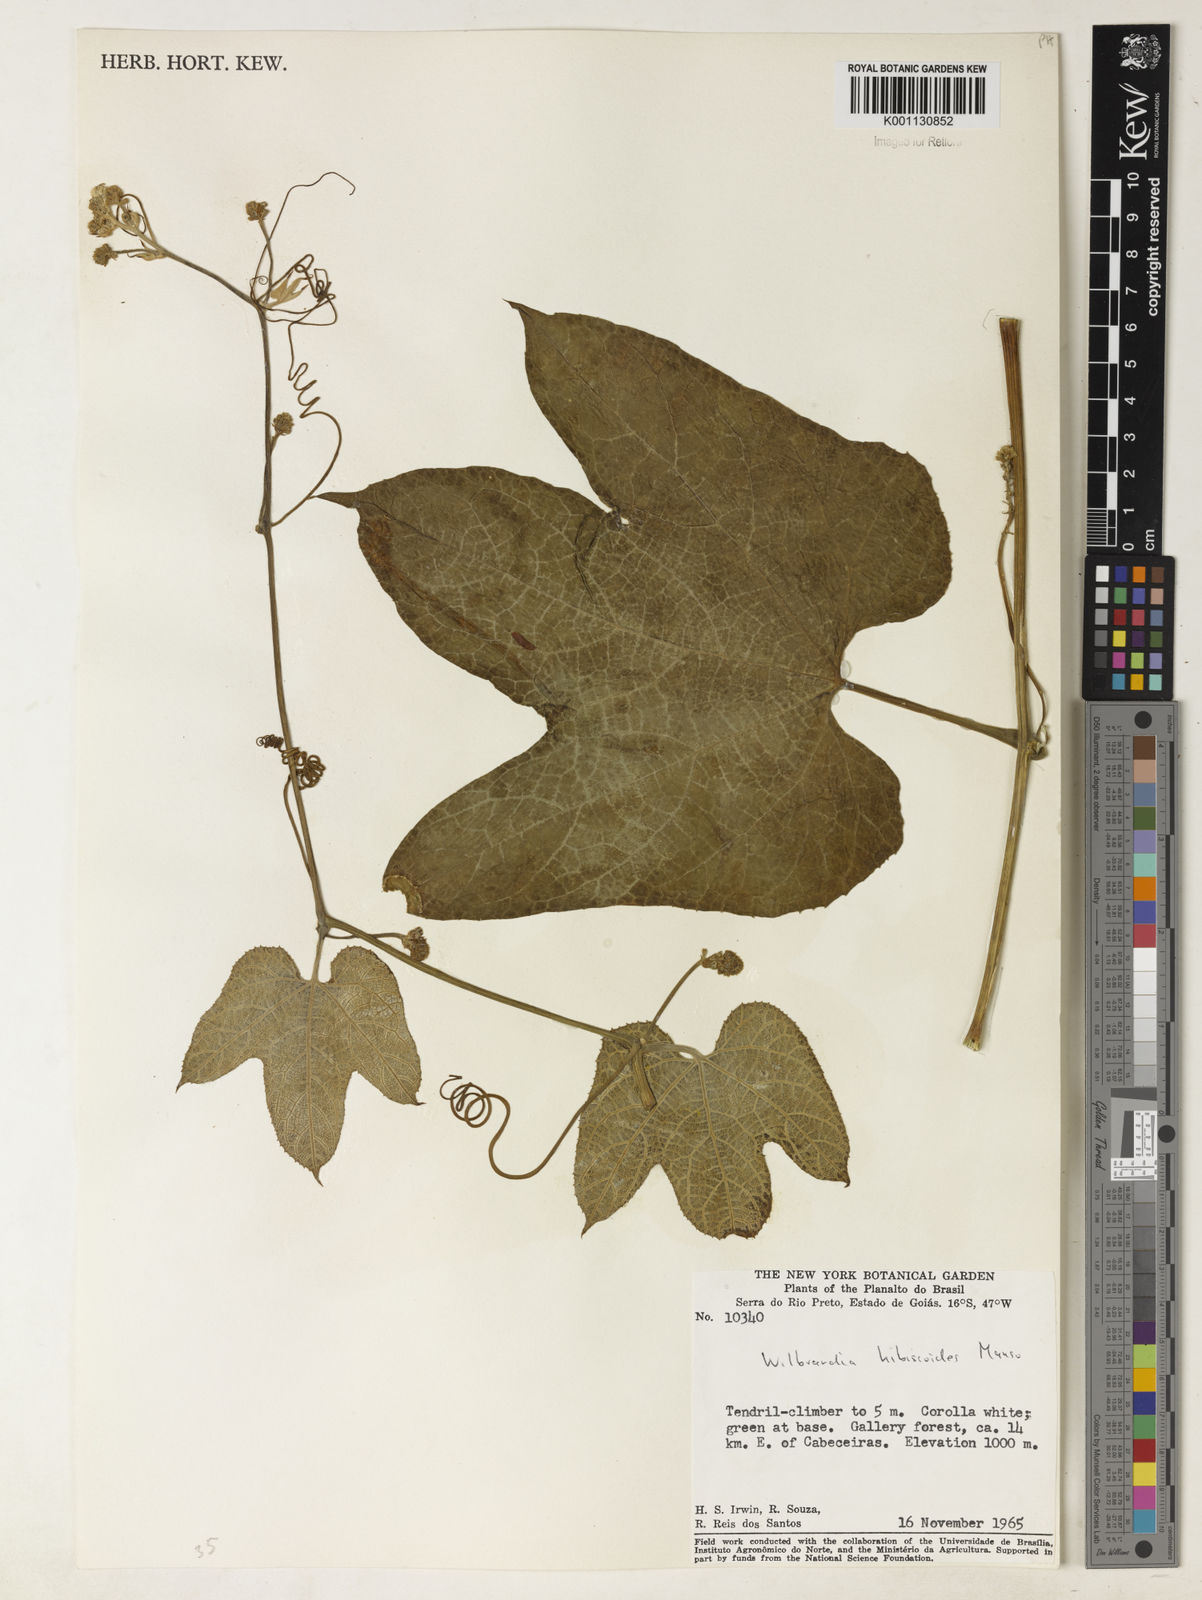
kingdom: Plantae
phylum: Tracheophyta
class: Magnoliopsida
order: Cucurbitales
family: Cucurbitaceae
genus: Wilbrandia
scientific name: Wilbrandia hibiscoides
